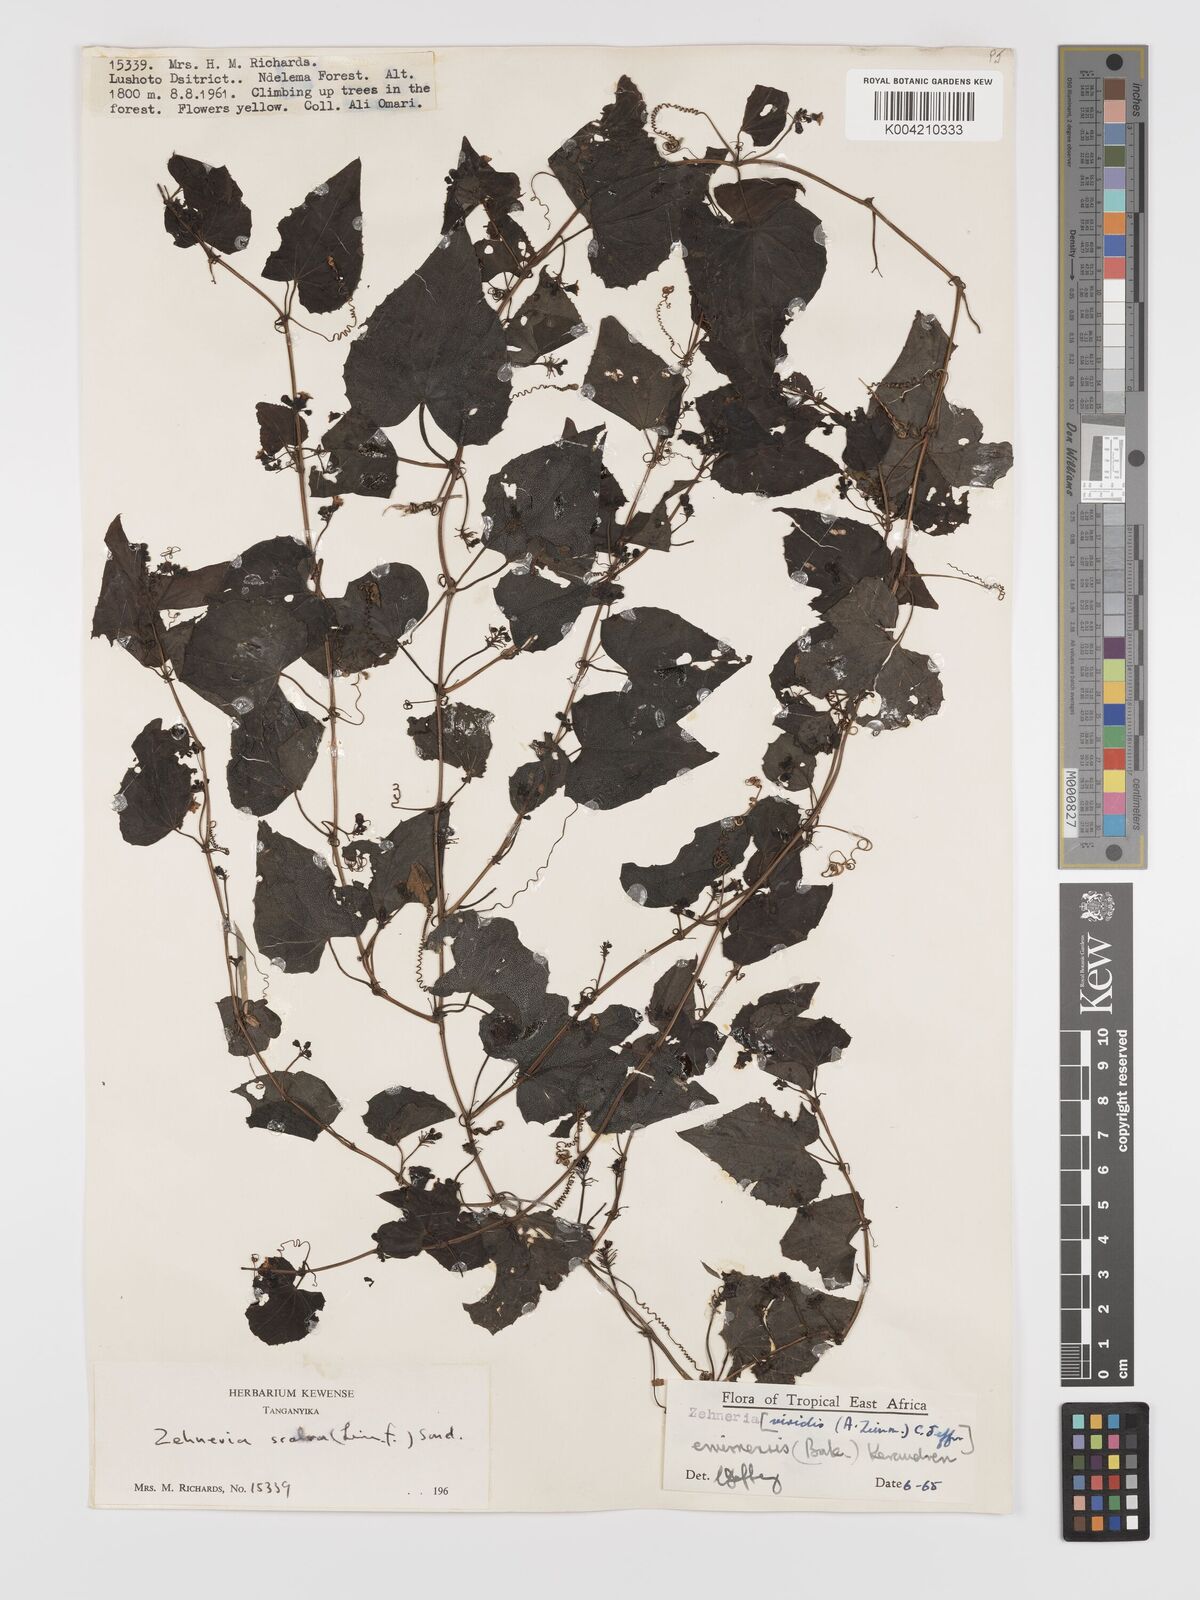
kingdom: Plantae
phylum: Tracheophyta
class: Magnoliopsida
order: Cucurbitales
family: Cucurbitaceae
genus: Zehneria
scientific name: Zehneria emirnensis
